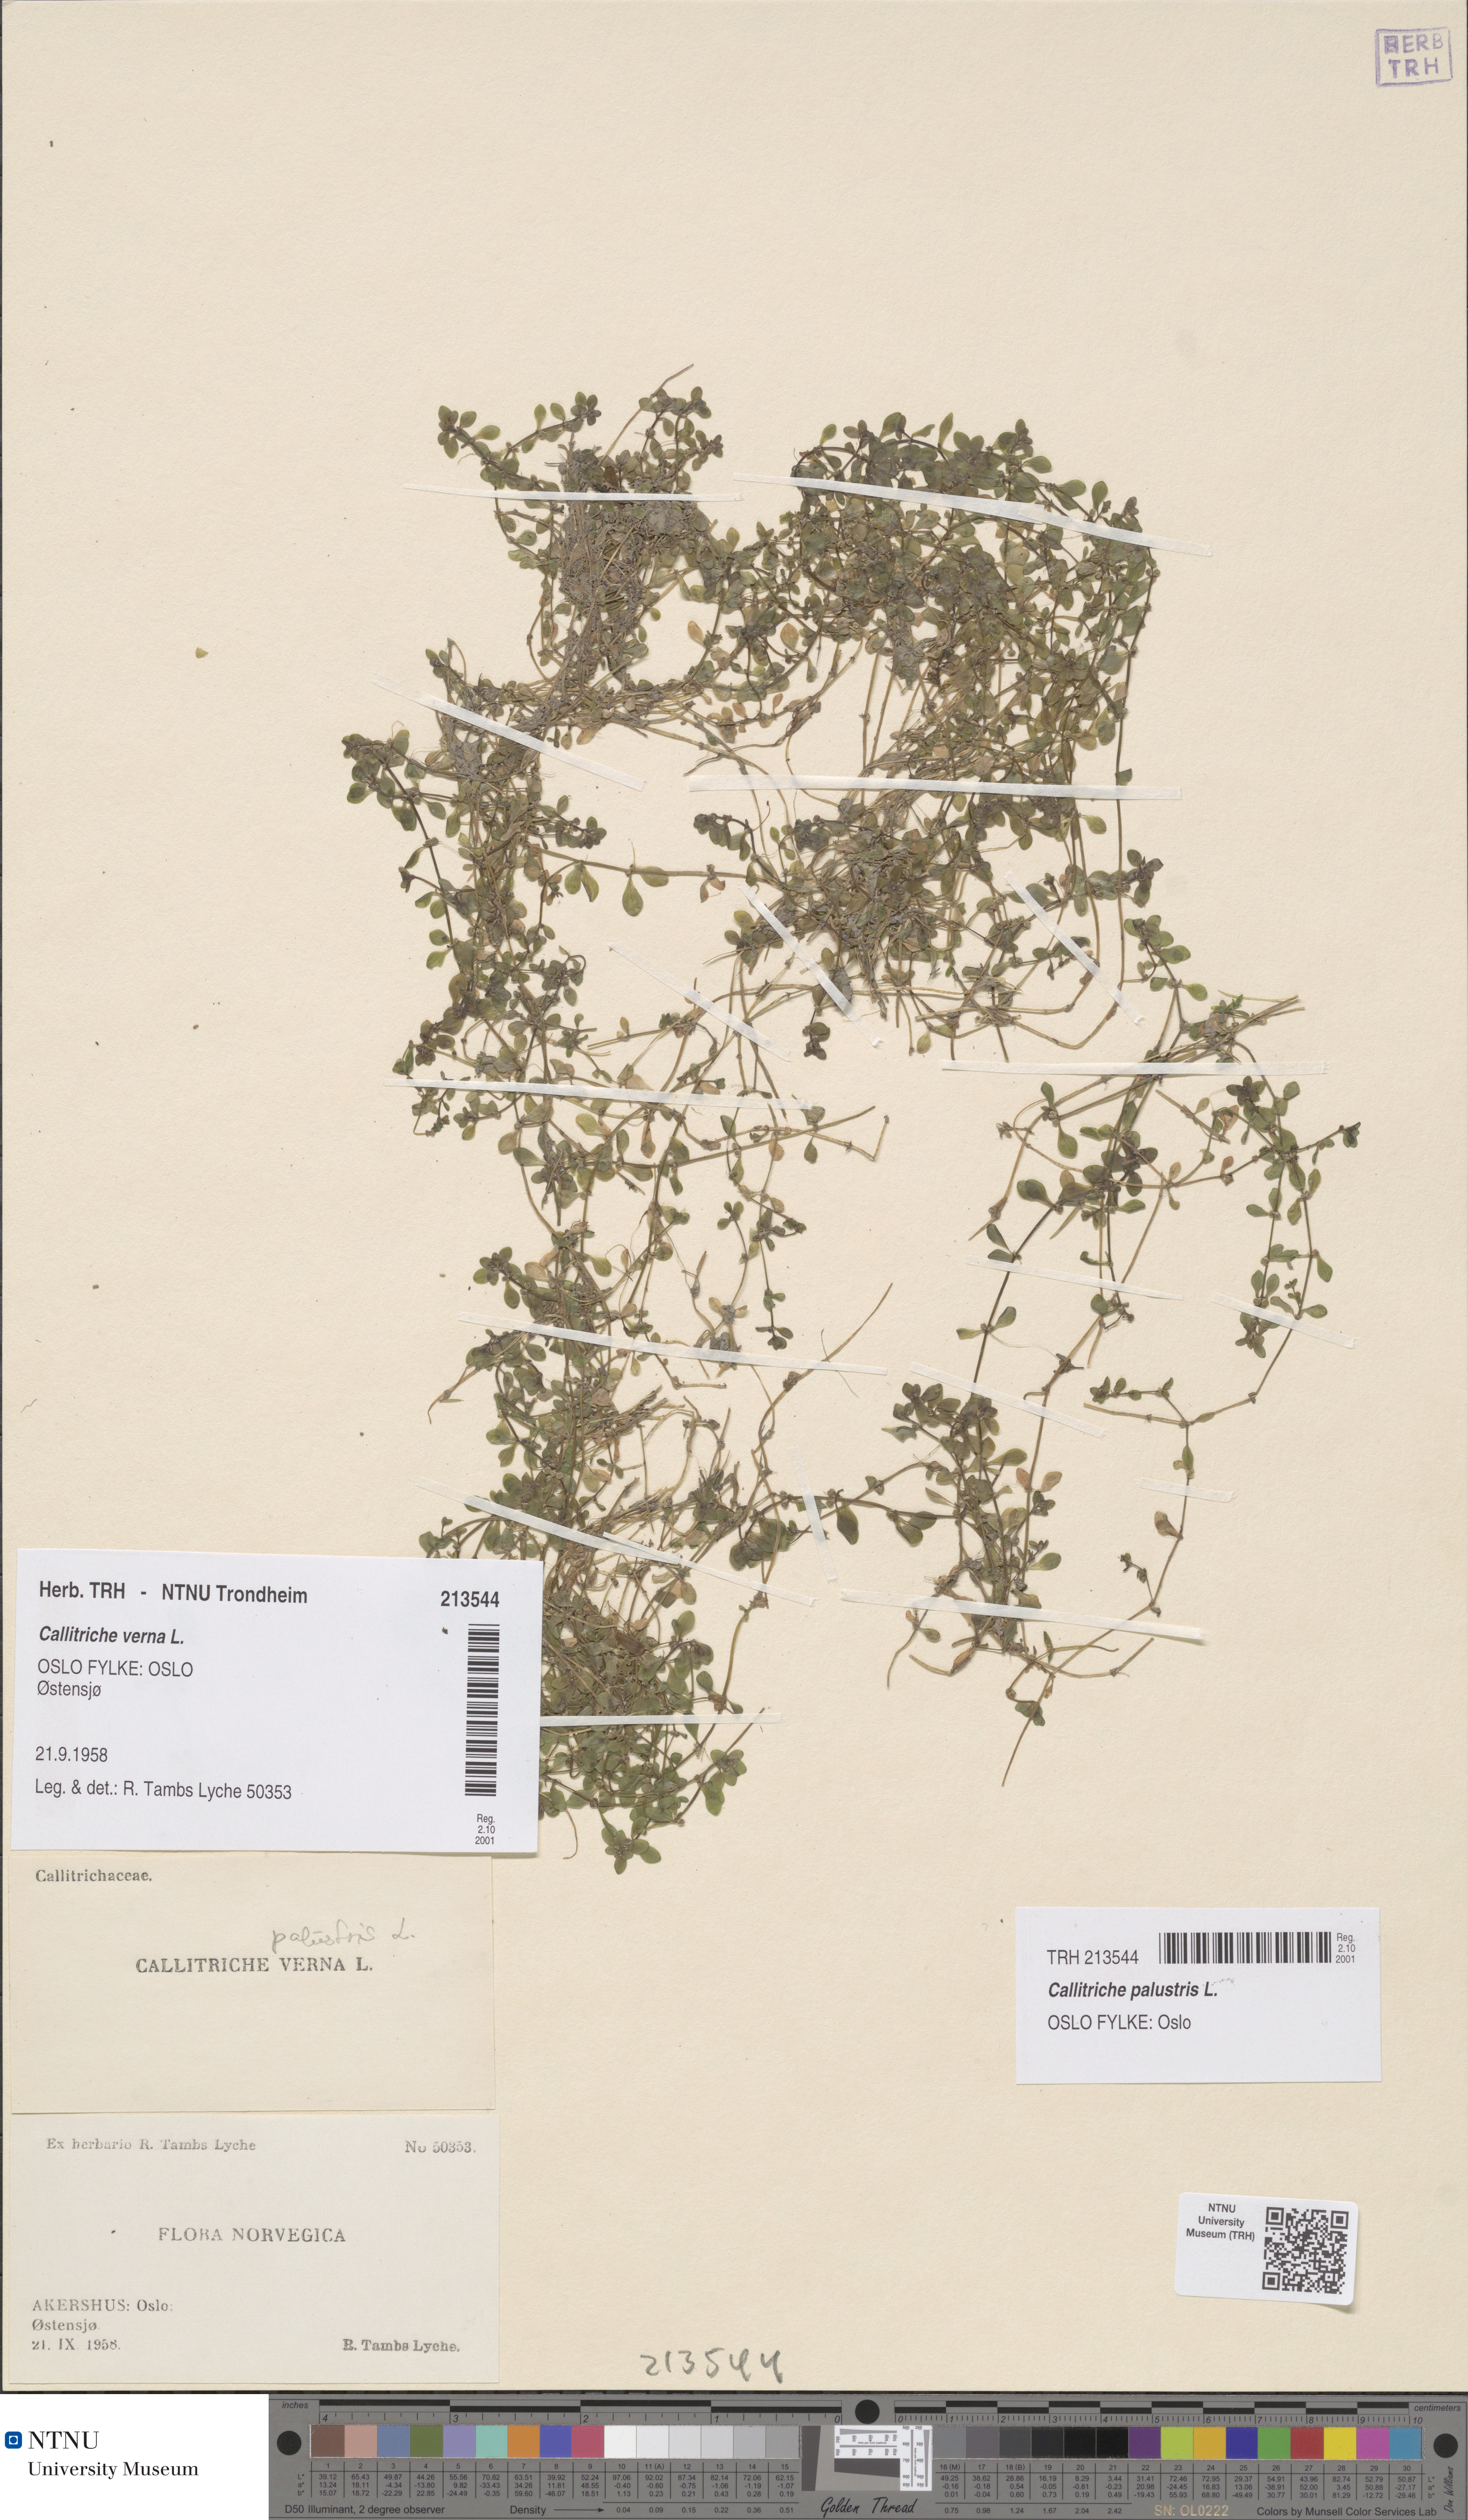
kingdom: Plantae
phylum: Tracheophyta
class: Magnoliopsida
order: Lamiales
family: Plantaginaceae
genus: Callitriche
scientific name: Callitriche palustris
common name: Spring water-starwort
